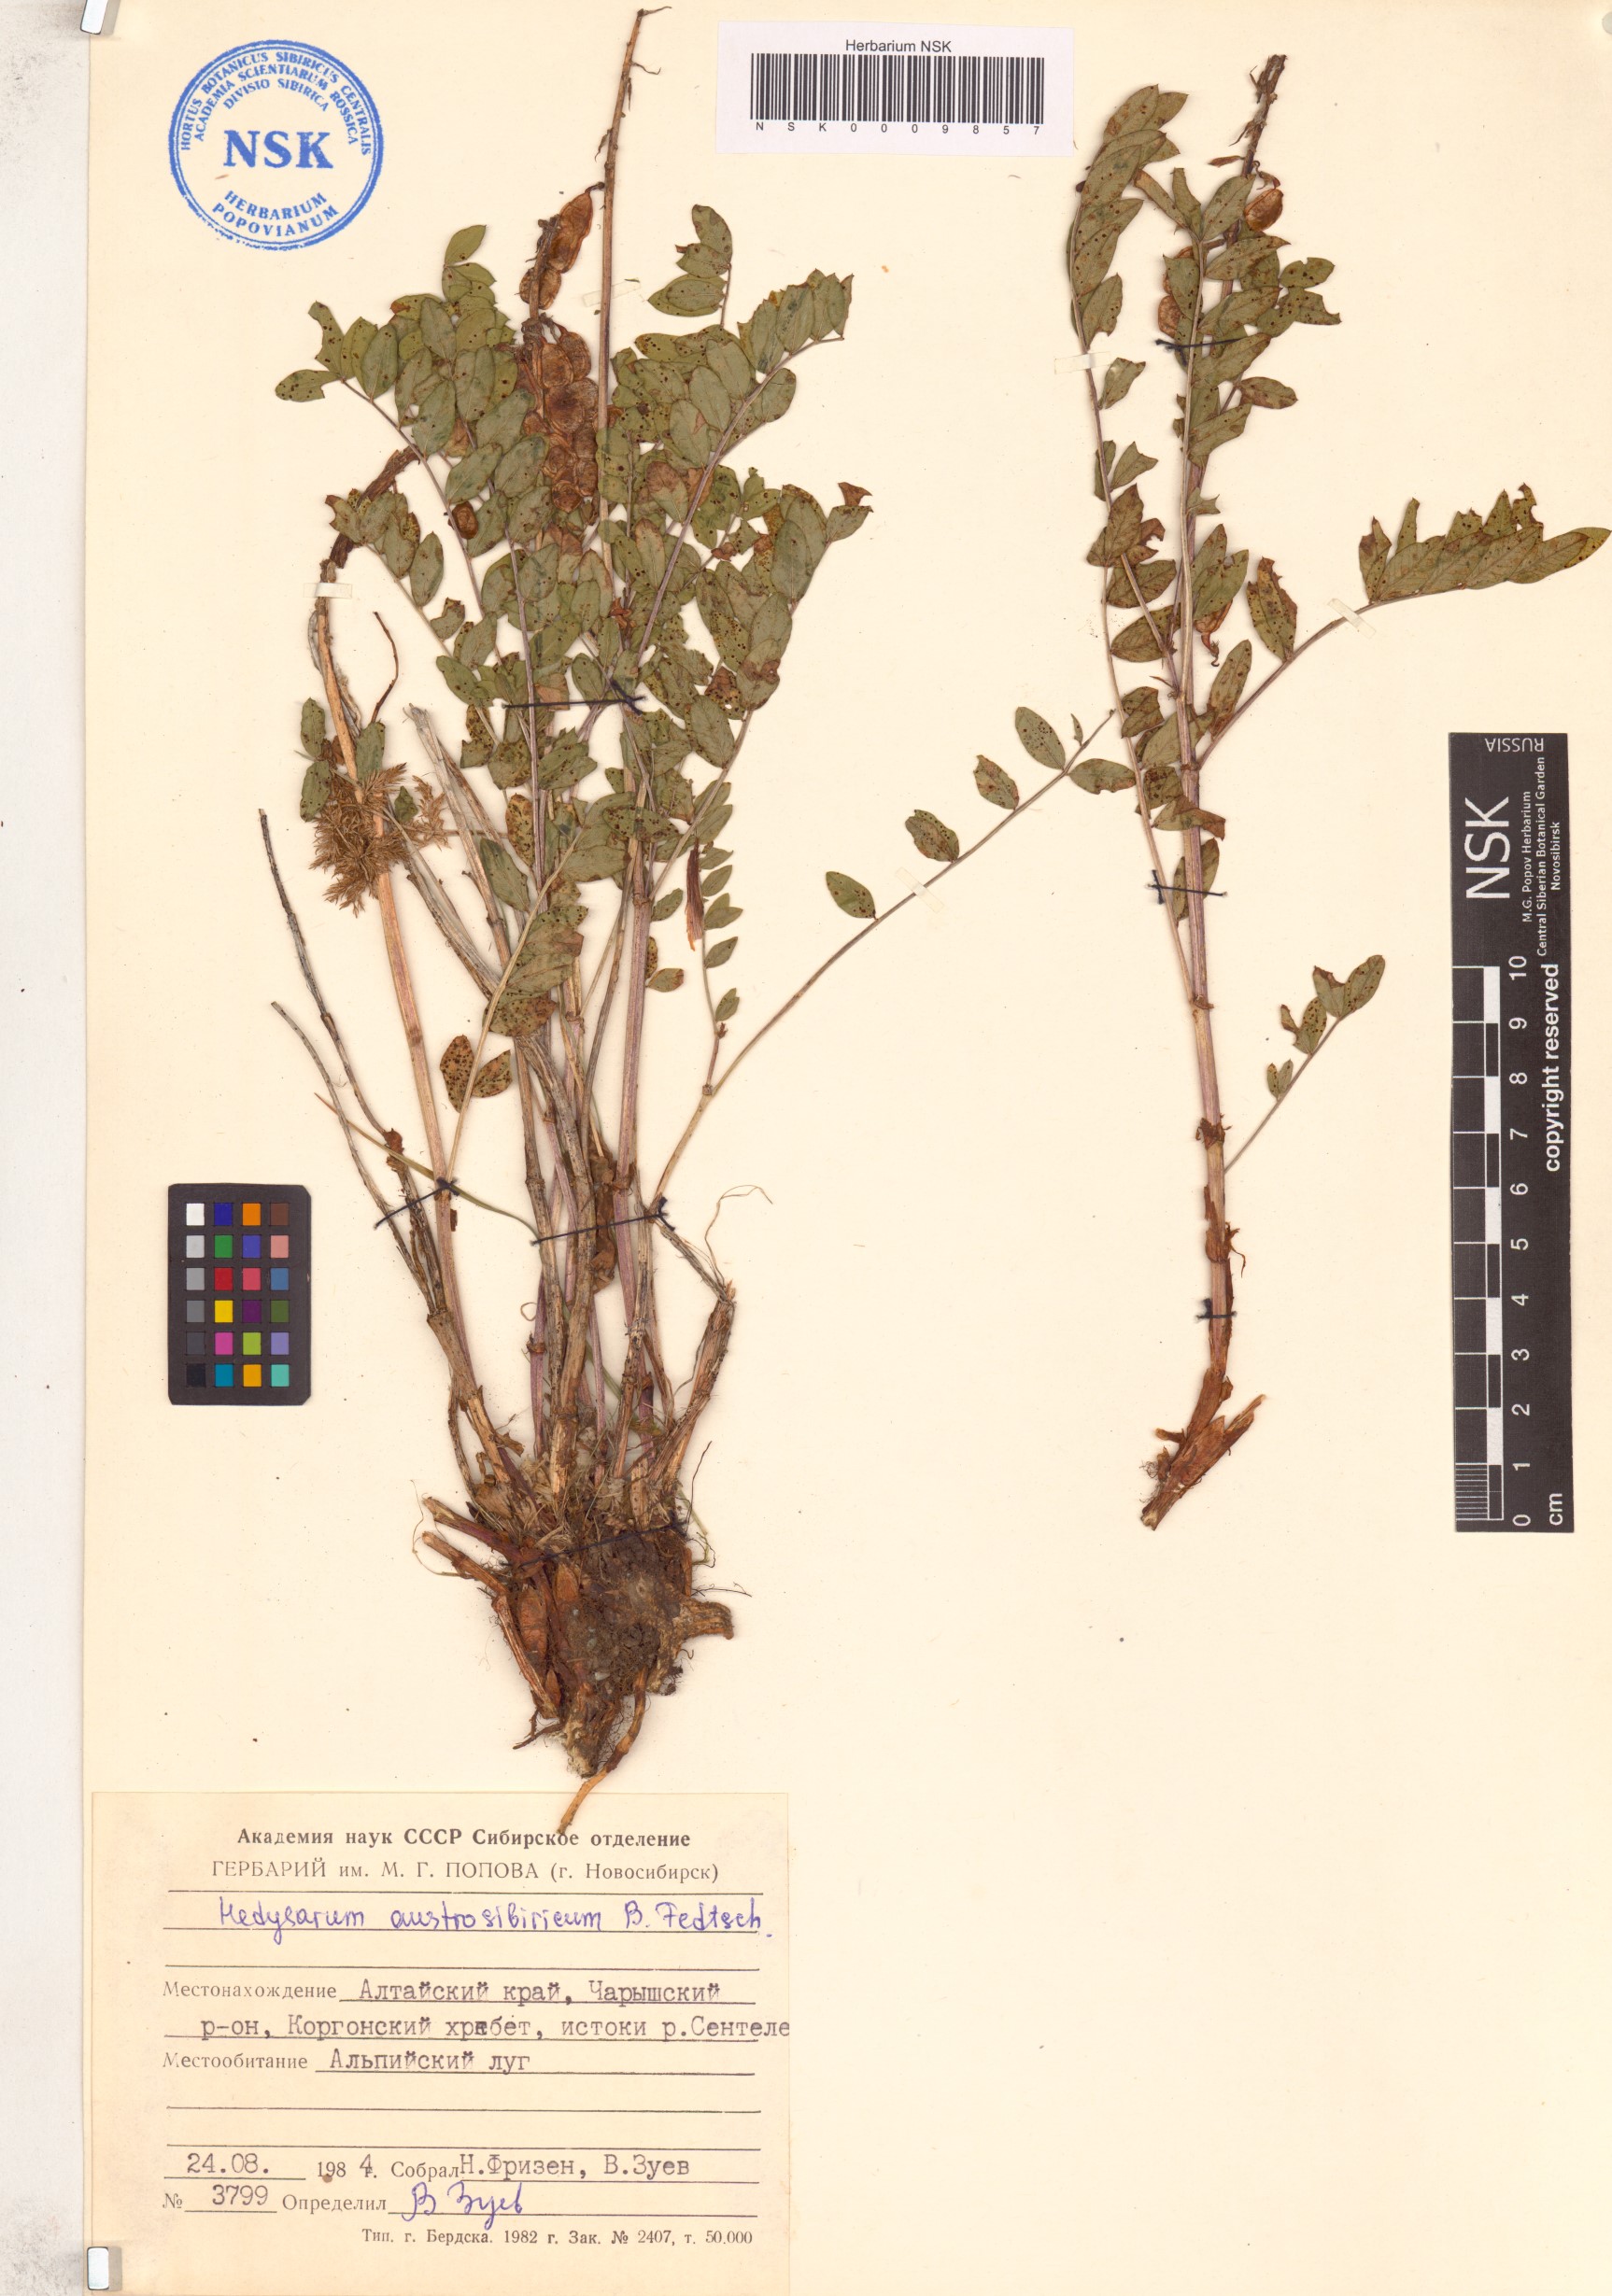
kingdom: Plantae
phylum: Tracheophyta
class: Magnoliopsida
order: Fabales
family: Fabaceae
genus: Hedysarum
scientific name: Hedysarum neglectum
